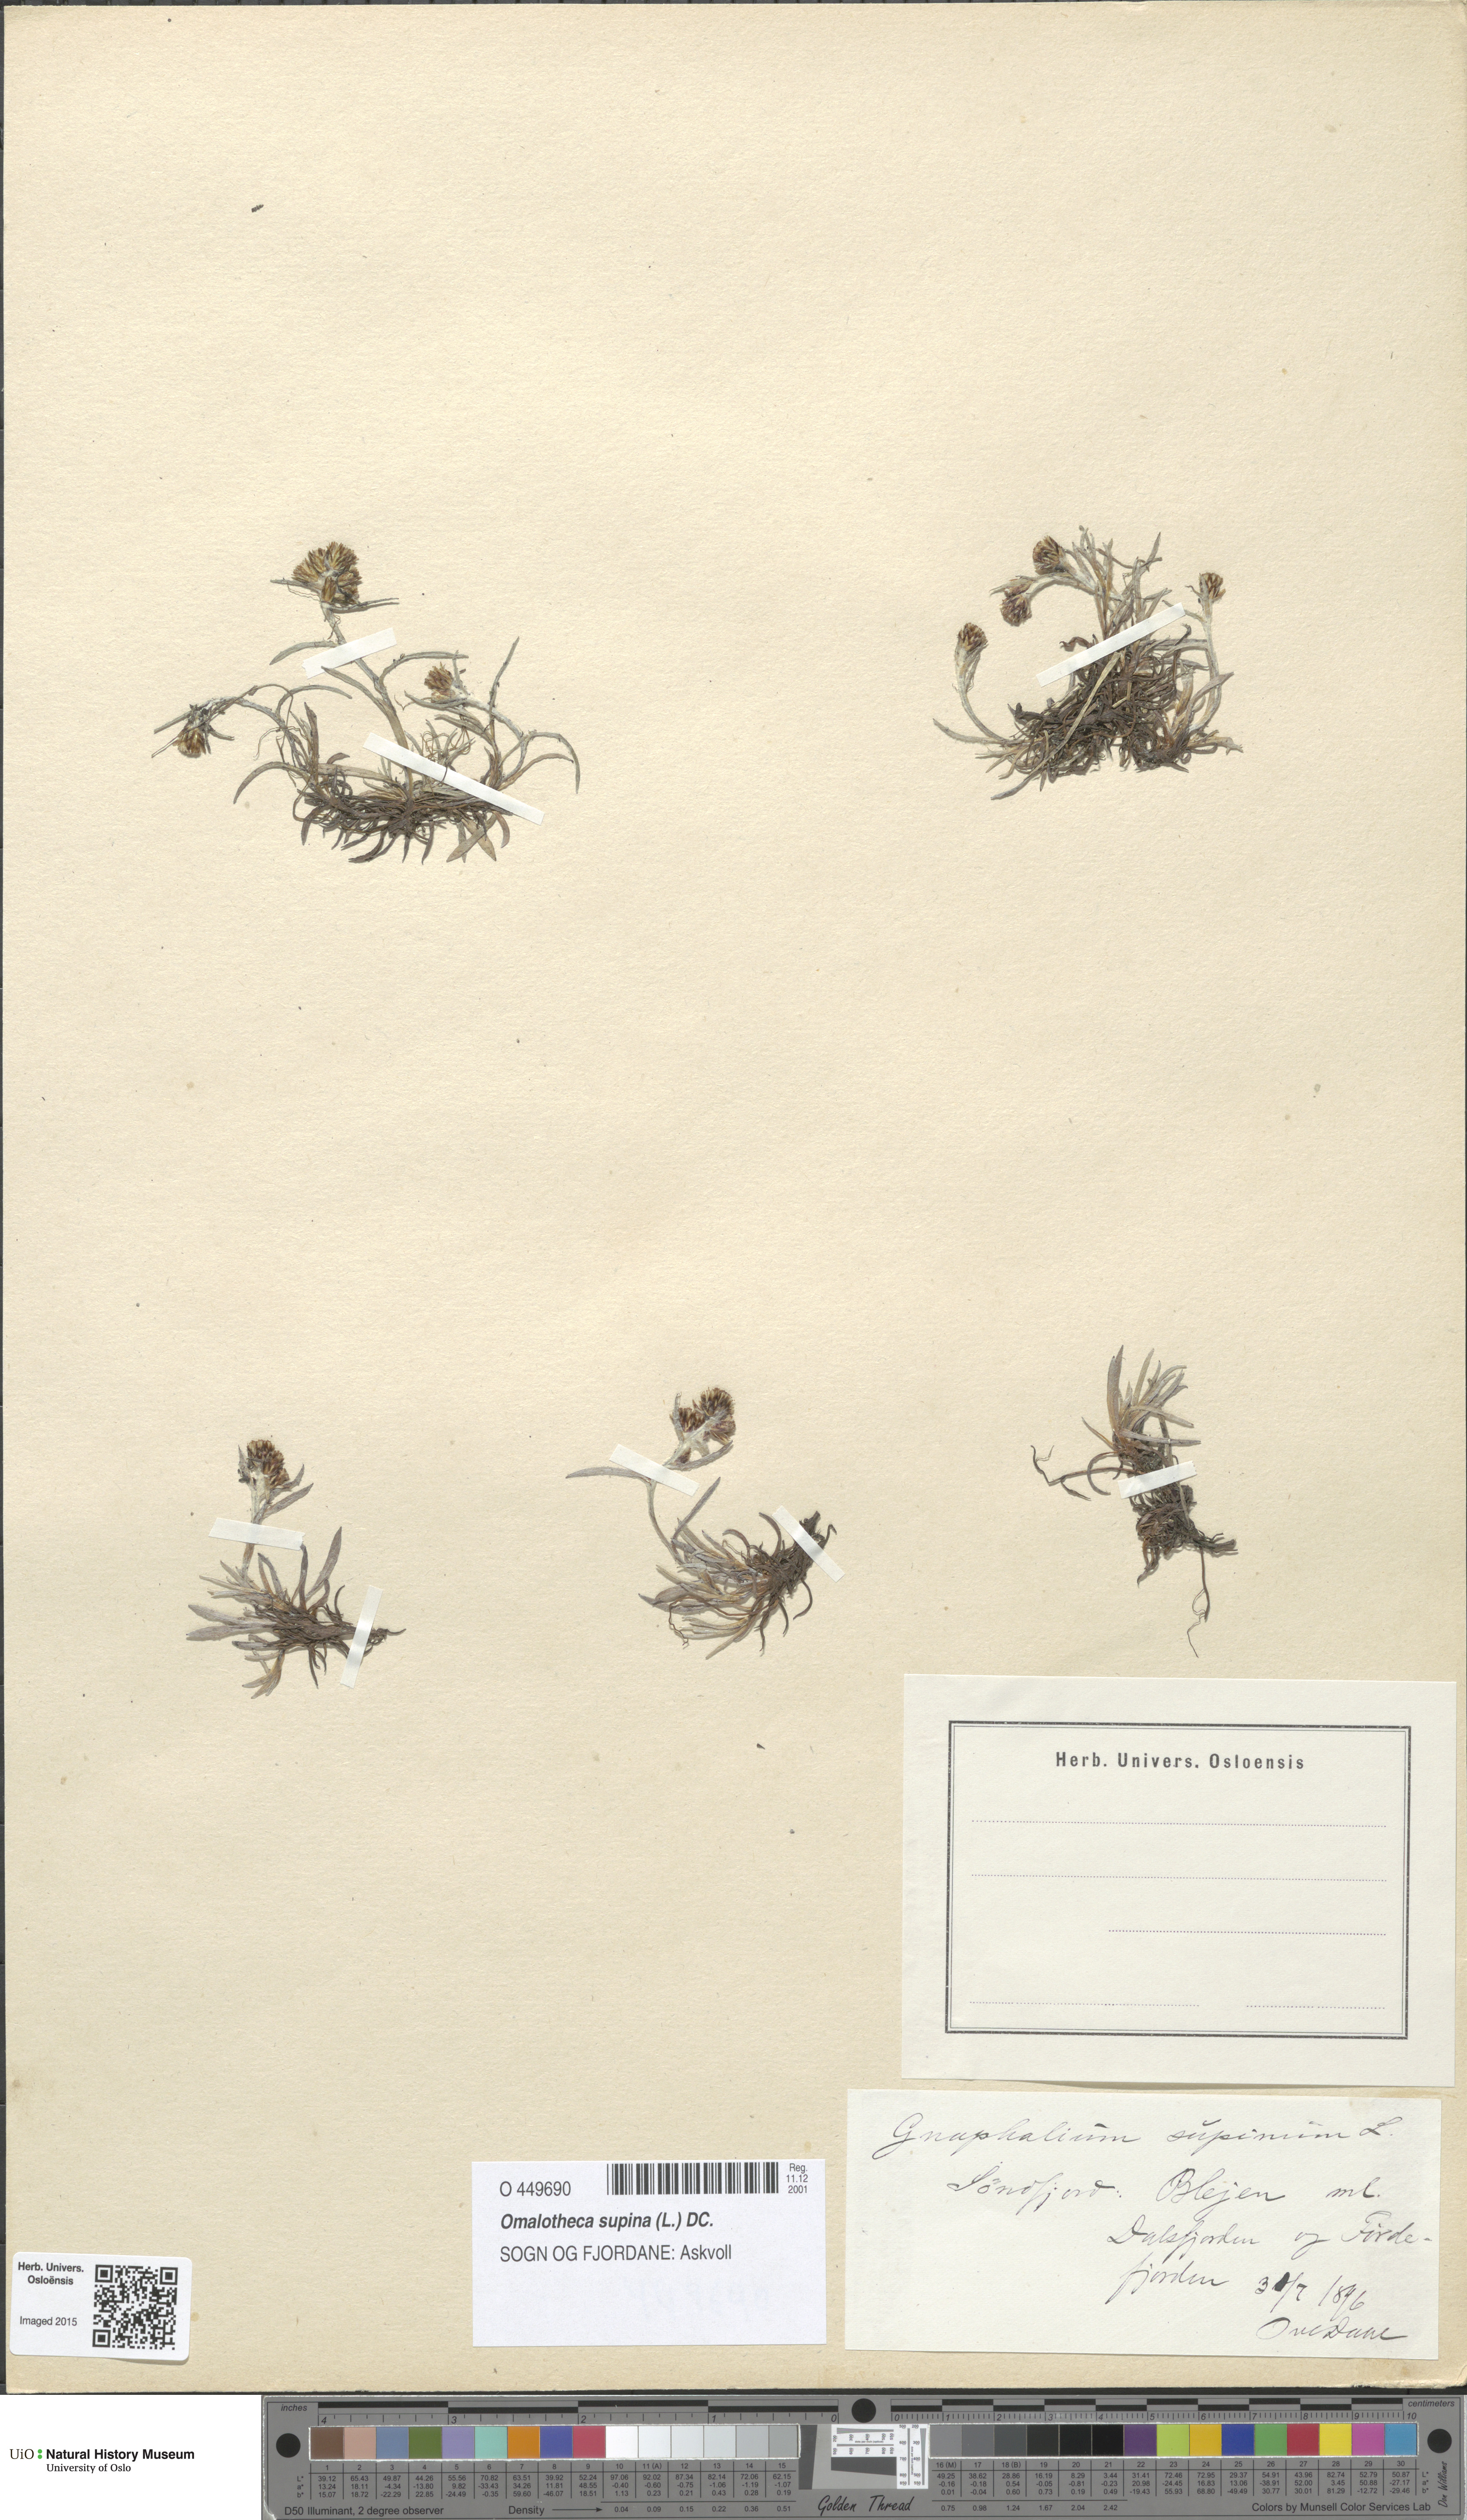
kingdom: Plantae
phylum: Tracheophyta
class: Magnoliopsida
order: Asterales
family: Asteraceae
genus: Omalotheca
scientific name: Omalotheca supina
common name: Alpine arctic-cudweed
